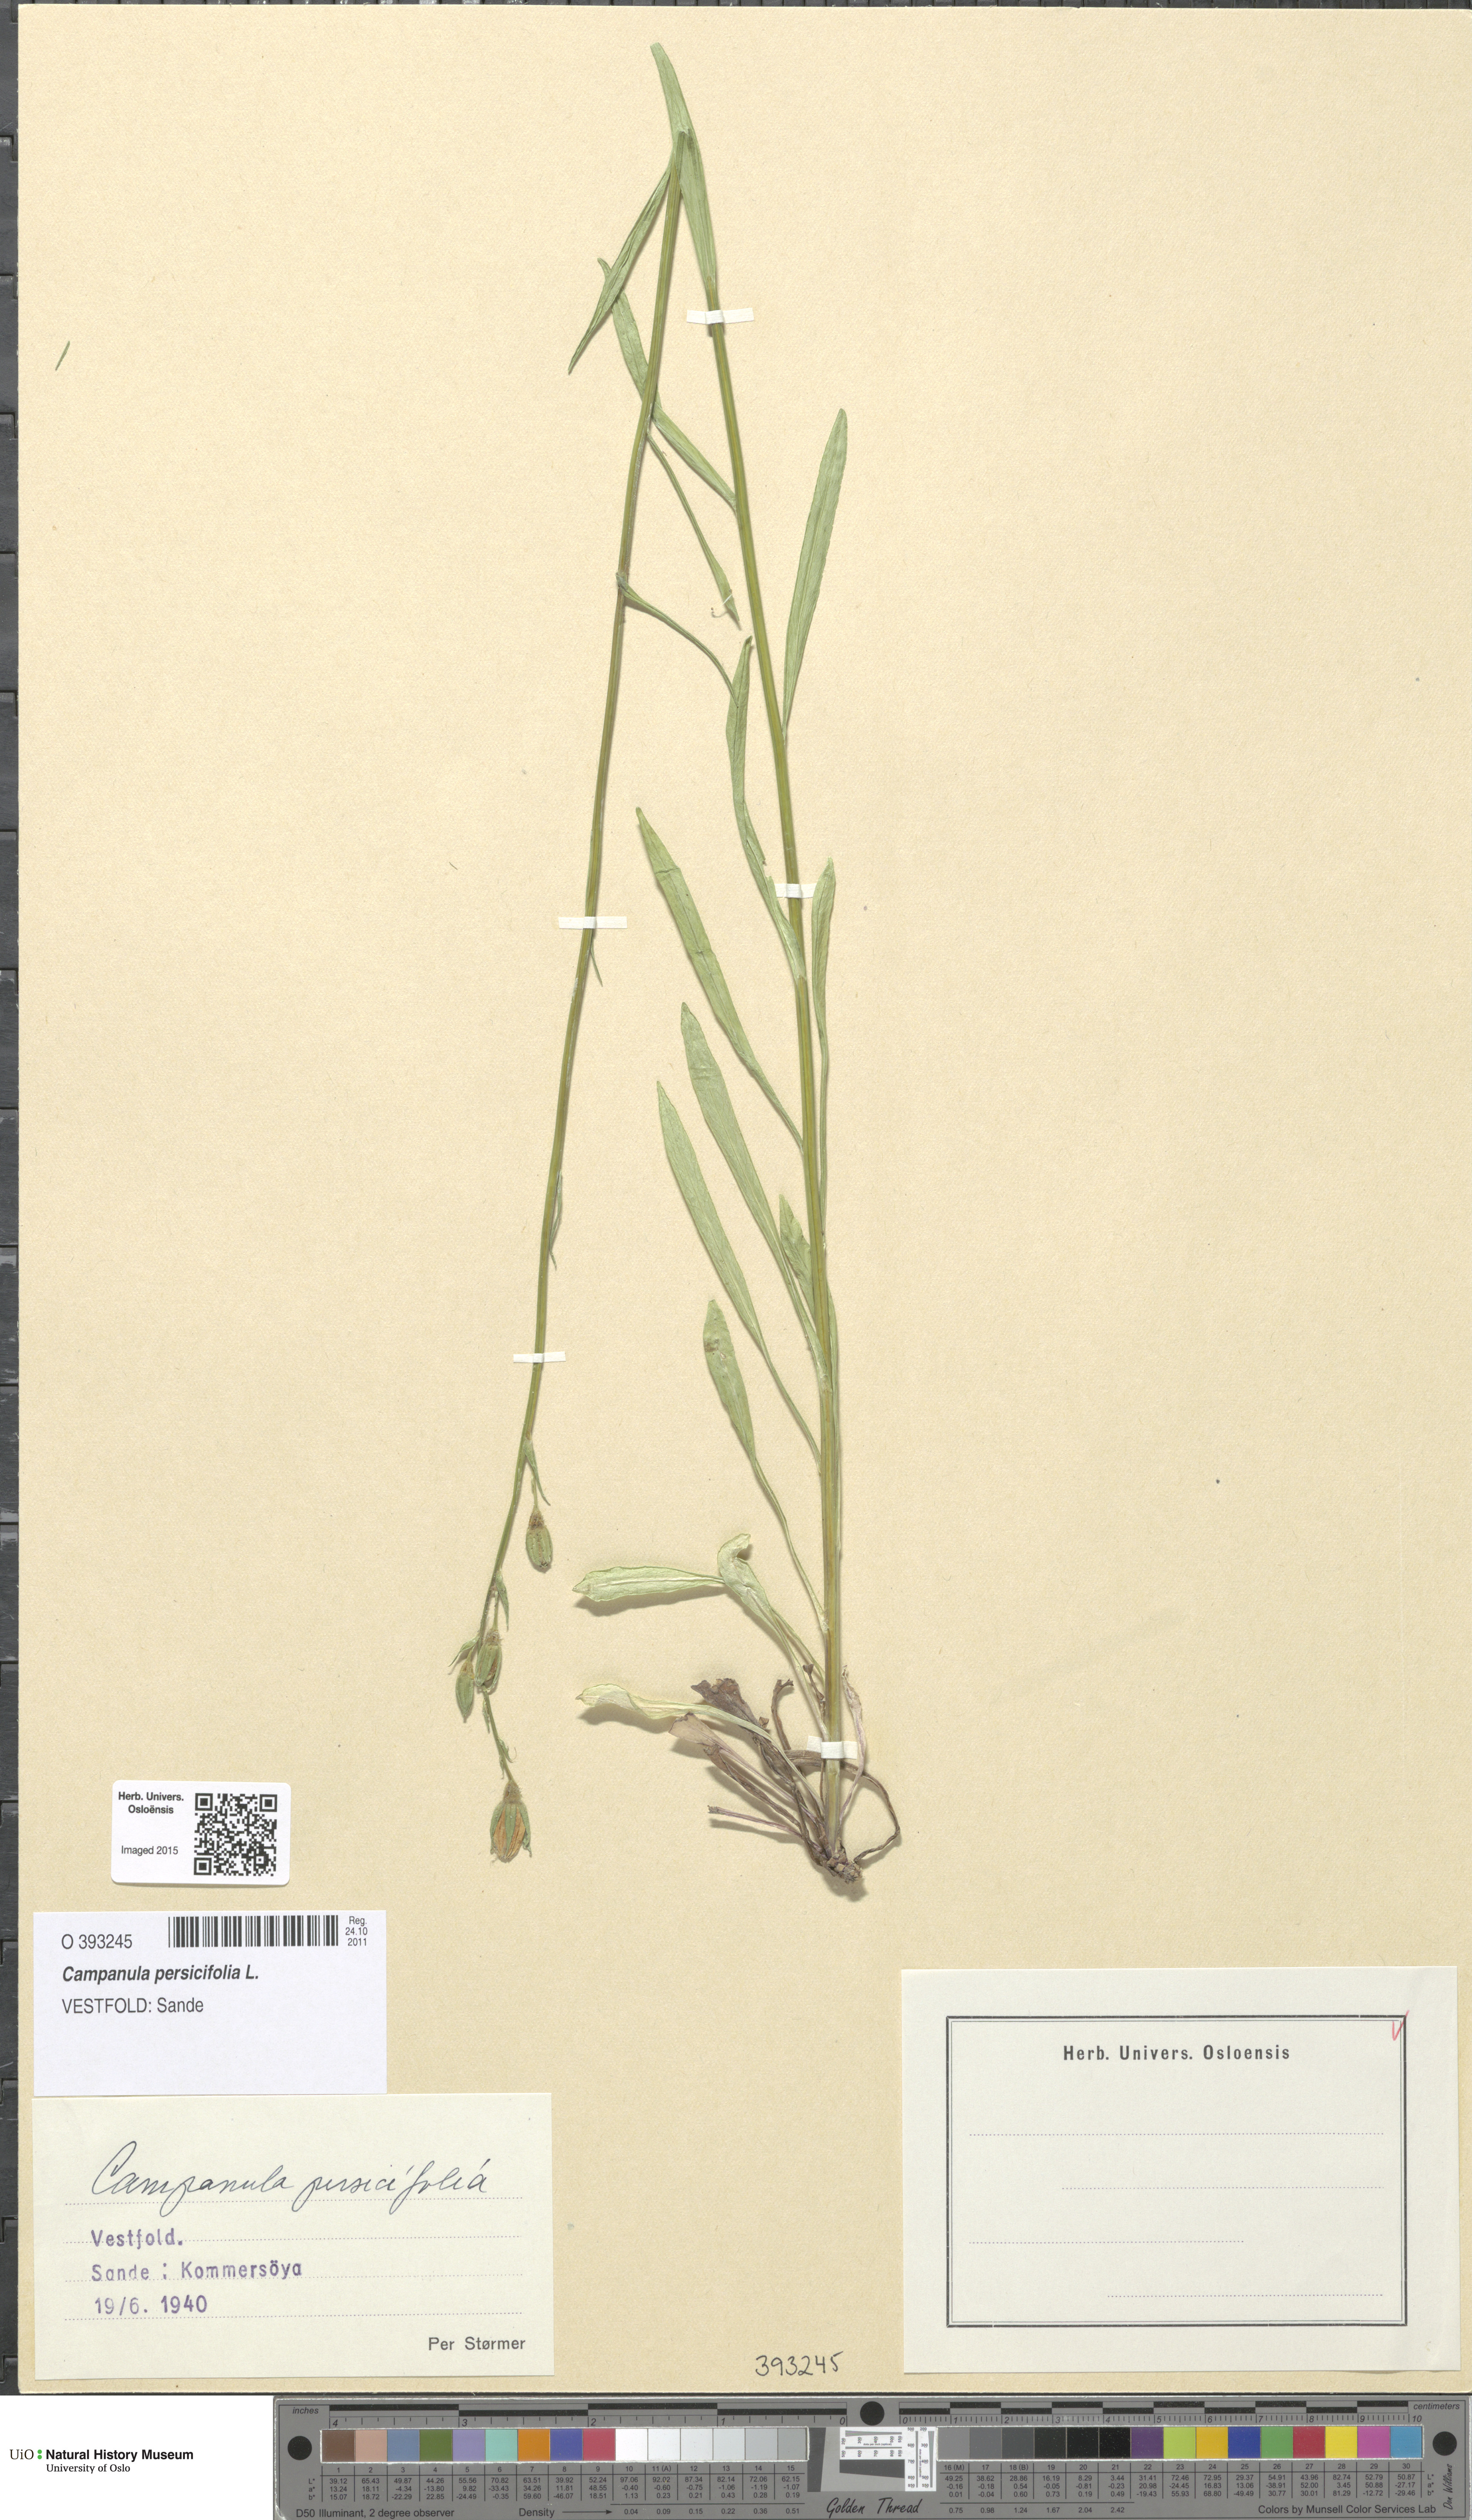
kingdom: Plantae
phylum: Tracheophyta
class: Magnoliopsida
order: Asterales
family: Campanulaceae
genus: Campanula
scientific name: Campanula persicifolia
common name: Peach-leaved bellflower
